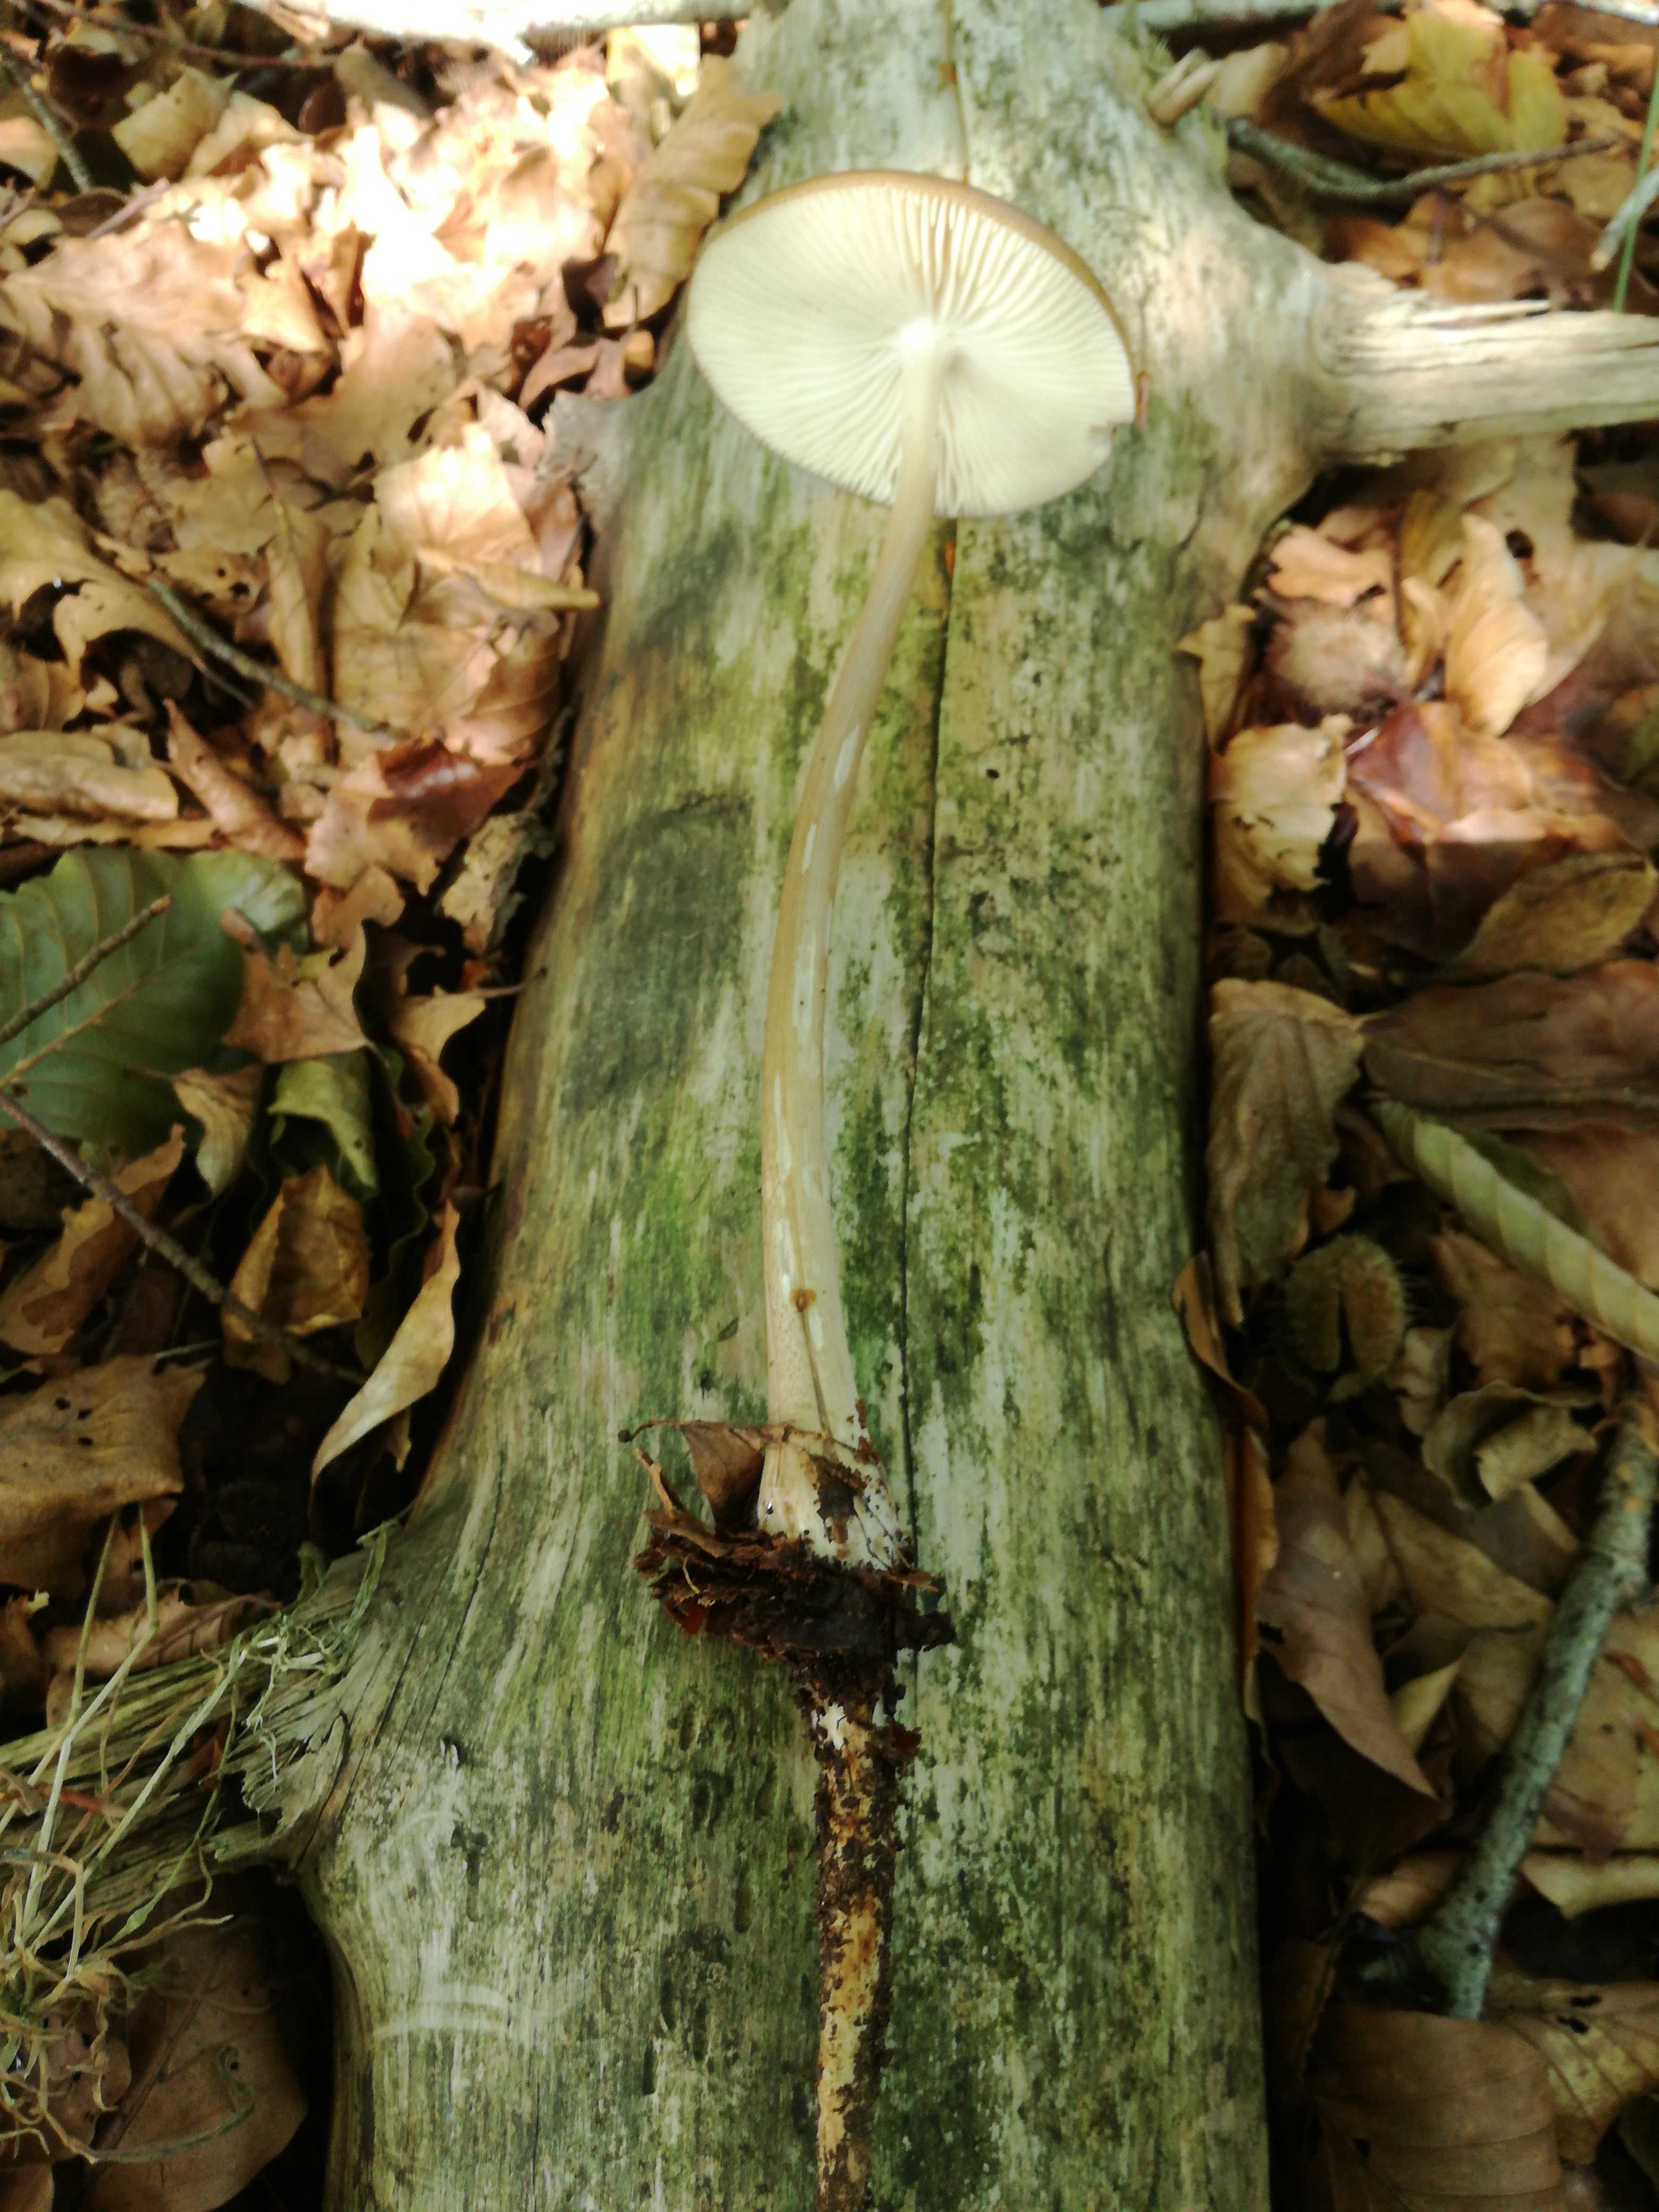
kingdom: Fungi
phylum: Basidiomycota
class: Agaricomycetes
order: Agaricales
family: Physalacriaceae
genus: Hymenopellis
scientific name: Hymenopellis radicata
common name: almindelig pælerodshat
